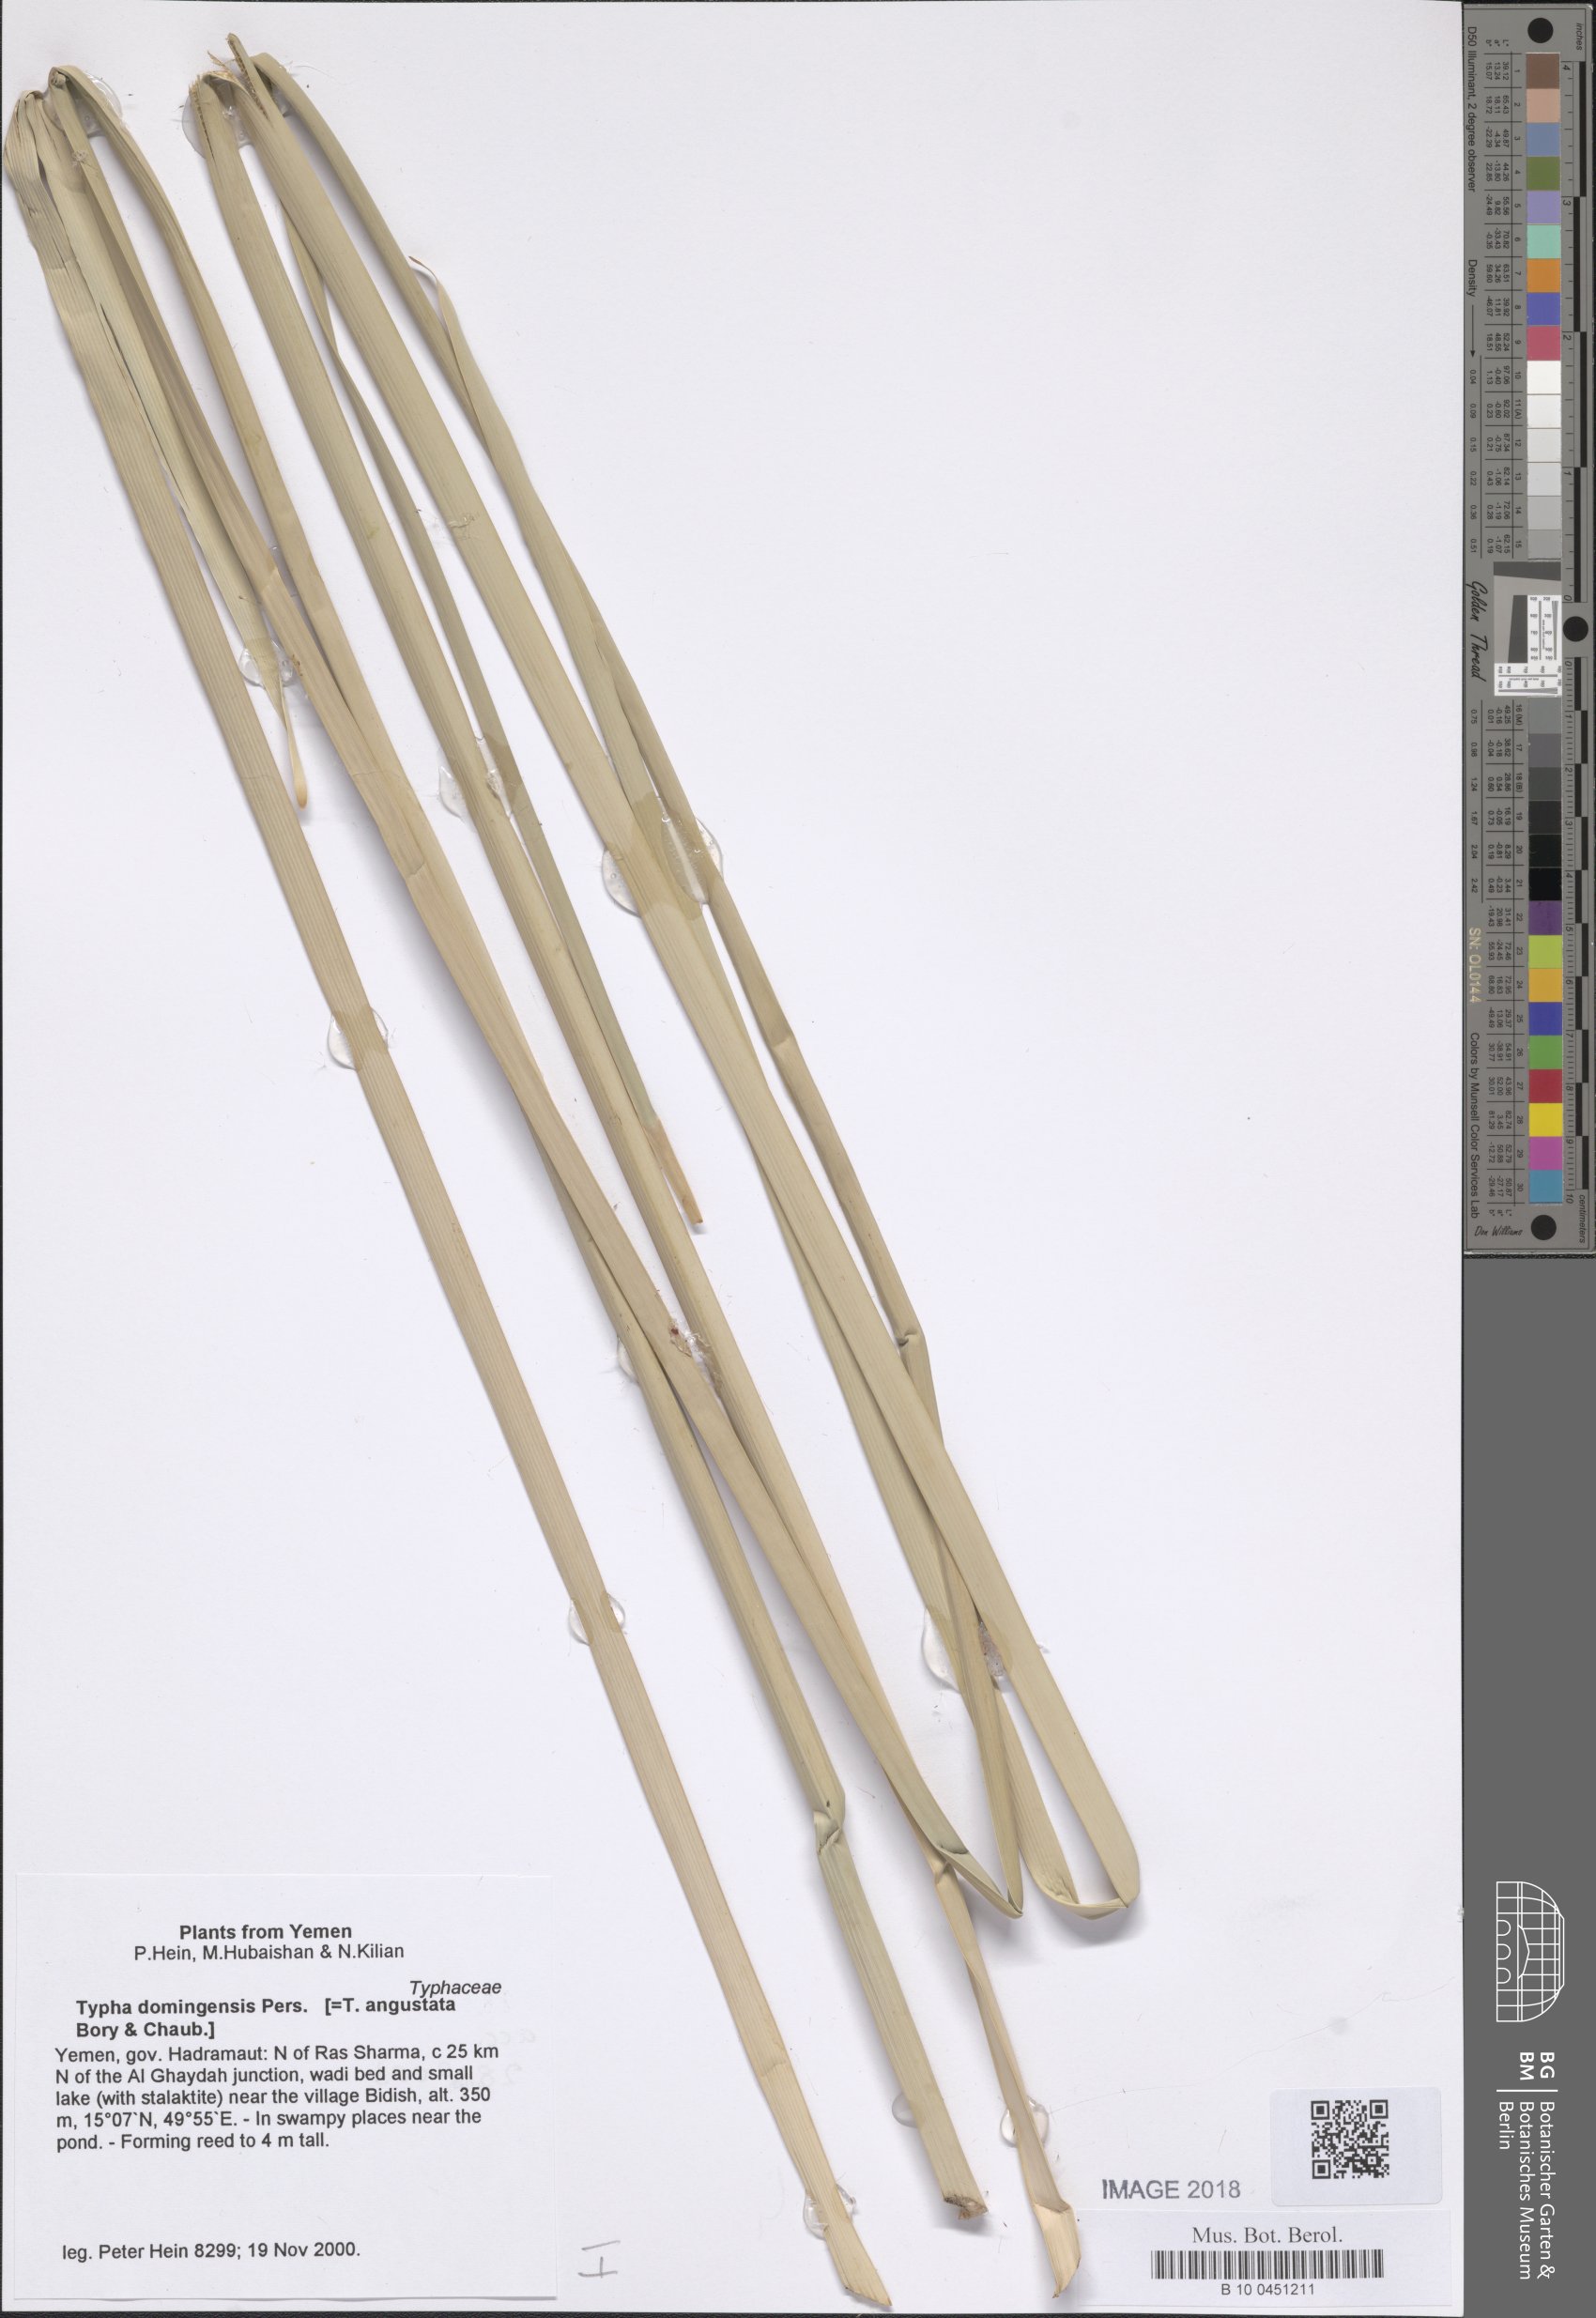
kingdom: Plantae
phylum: Tracheophyta
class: Liliopsida
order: Poales
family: Typhaceae
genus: Typha
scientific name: Typha domingensis
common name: Southern cattail
